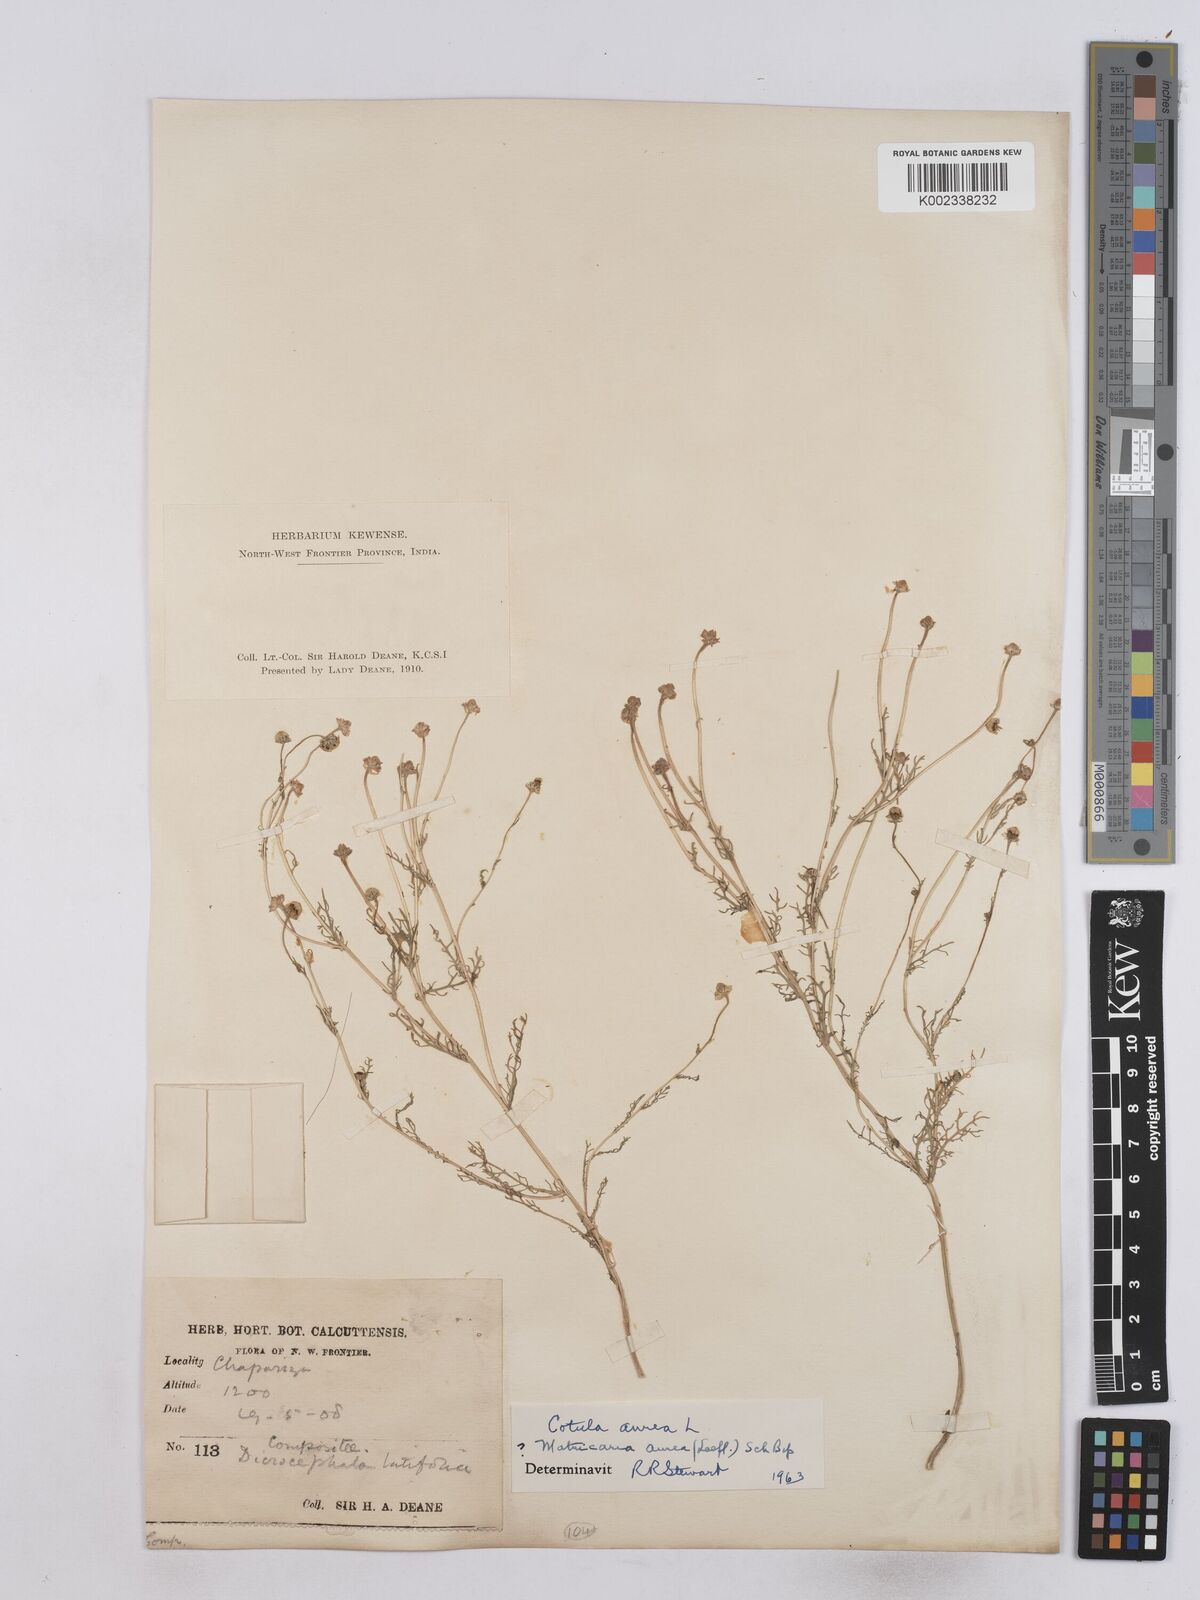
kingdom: Plantae
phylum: Tracheophyta
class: Magnoliopsida
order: Asterales
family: Asteraceae
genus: Matricaria
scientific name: Matricaria aurea
